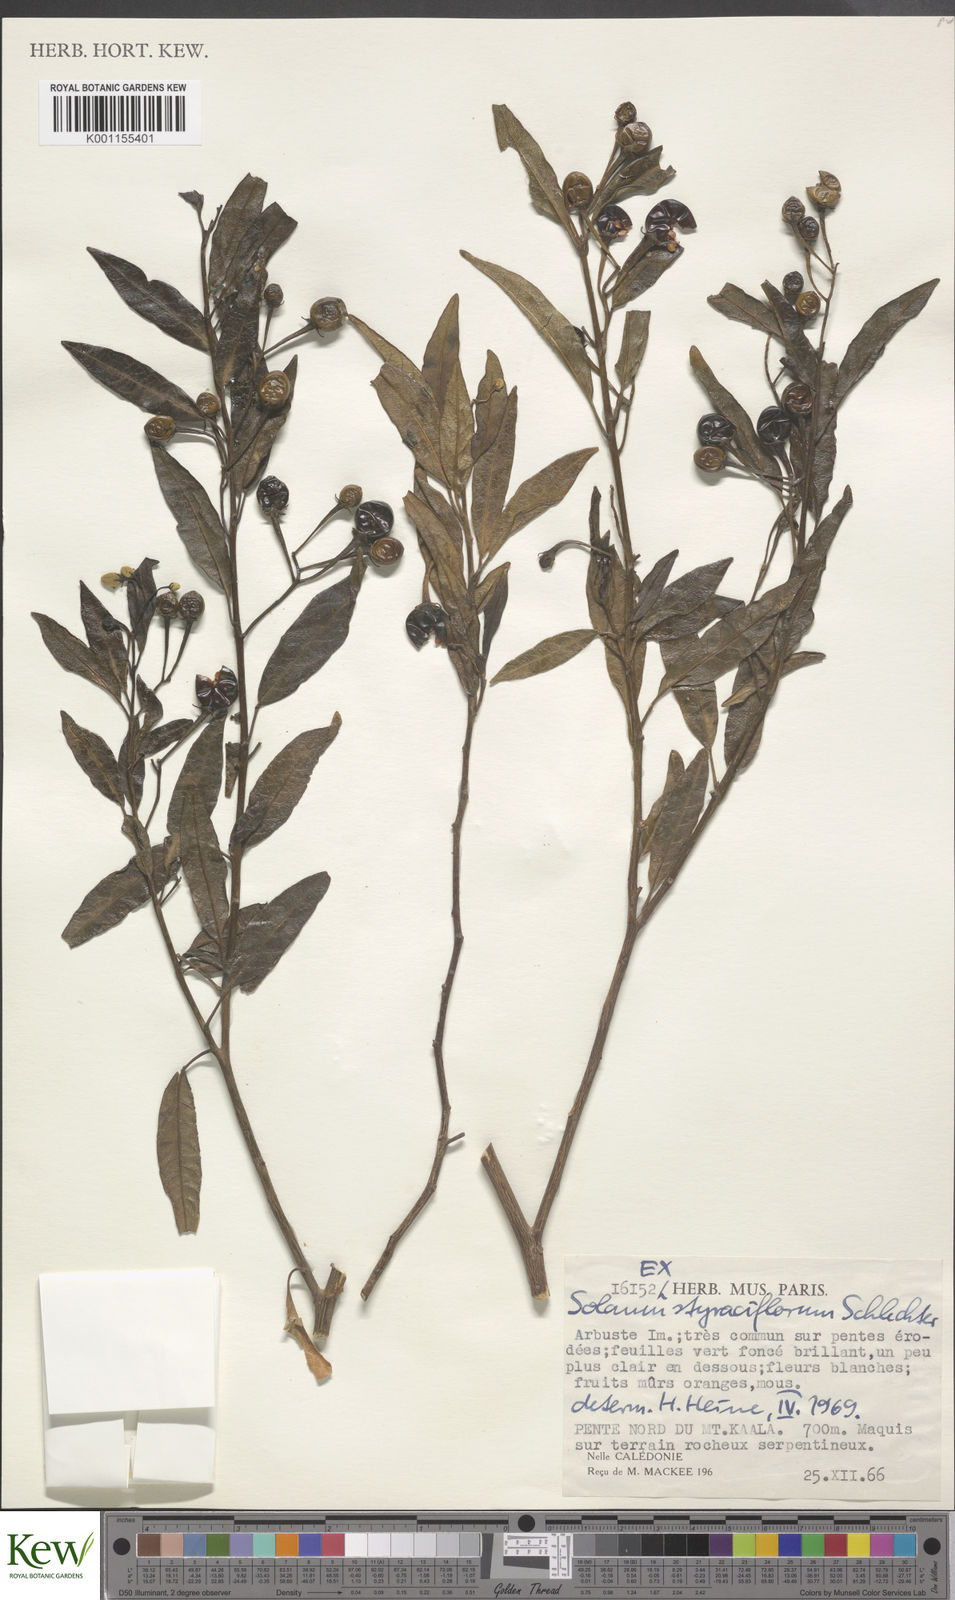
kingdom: Plantae
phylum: Tracheophyta
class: Magnoliopsida
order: Solanales
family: Solanaceae
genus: Solanum
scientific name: Solanum artense
